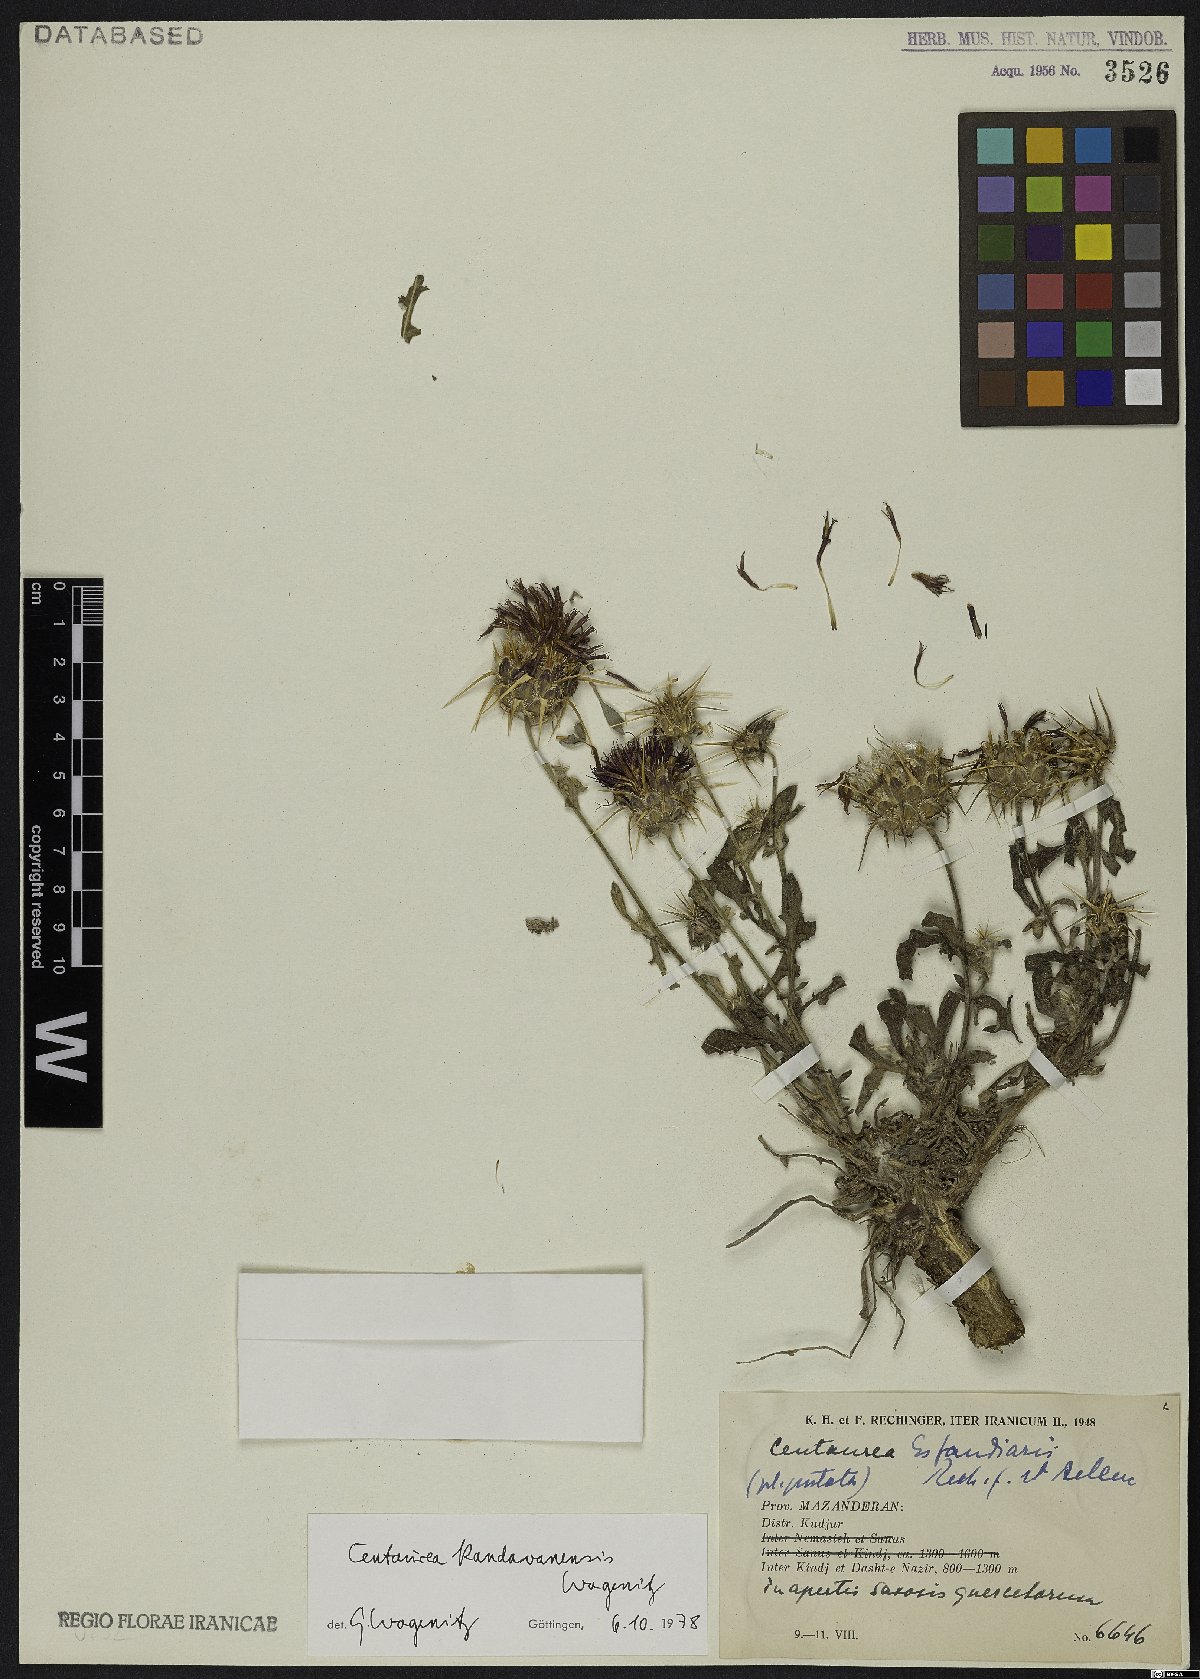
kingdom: Plantae
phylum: Tracheophyta
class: Magnoliopsida
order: Asterales
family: Asteraceae
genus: Centaurea
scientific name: Centaurea kandavanensis
